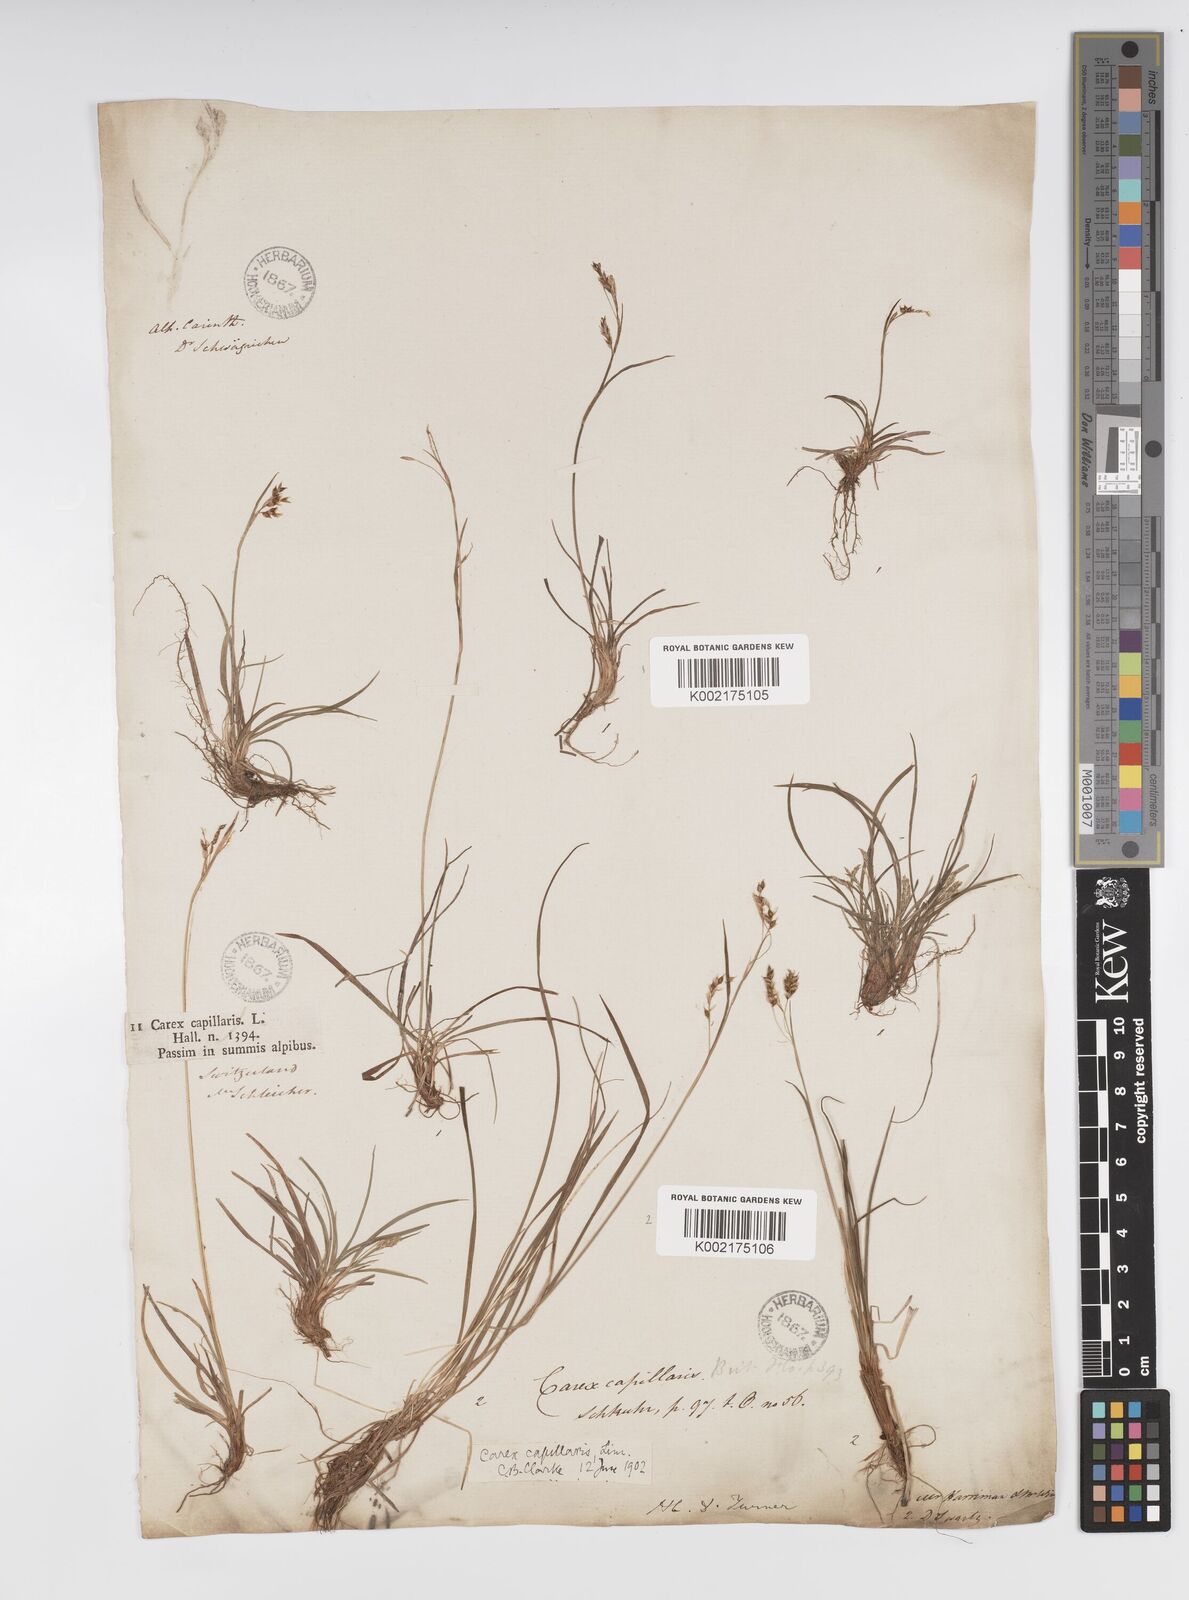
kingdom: Plantae
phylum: Tracheophyta
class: Liliopsida
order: Poales
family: Cyperaceae
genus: Carex
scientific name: Carex capillaris
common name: Hair sedge
